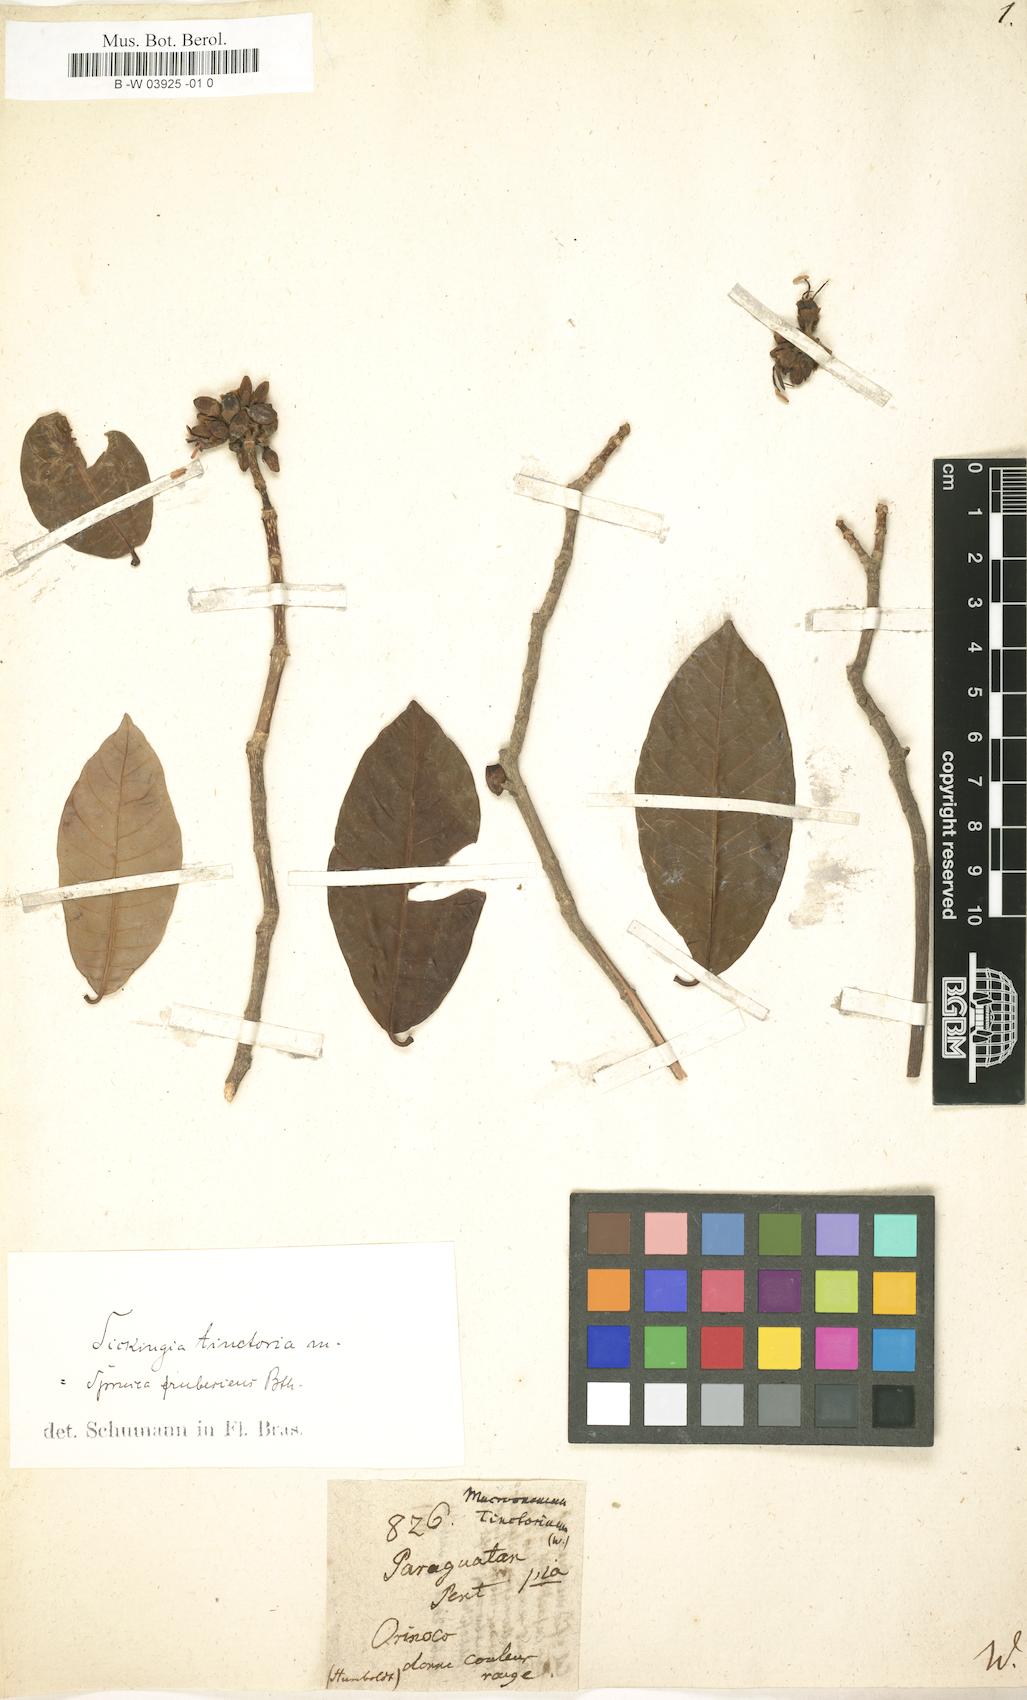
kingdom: Plantae
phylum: Tracheophyta
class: Magnoliopsida
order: Gentianales
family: Rubiaceae
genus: Simira
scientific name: Simira rubescens
